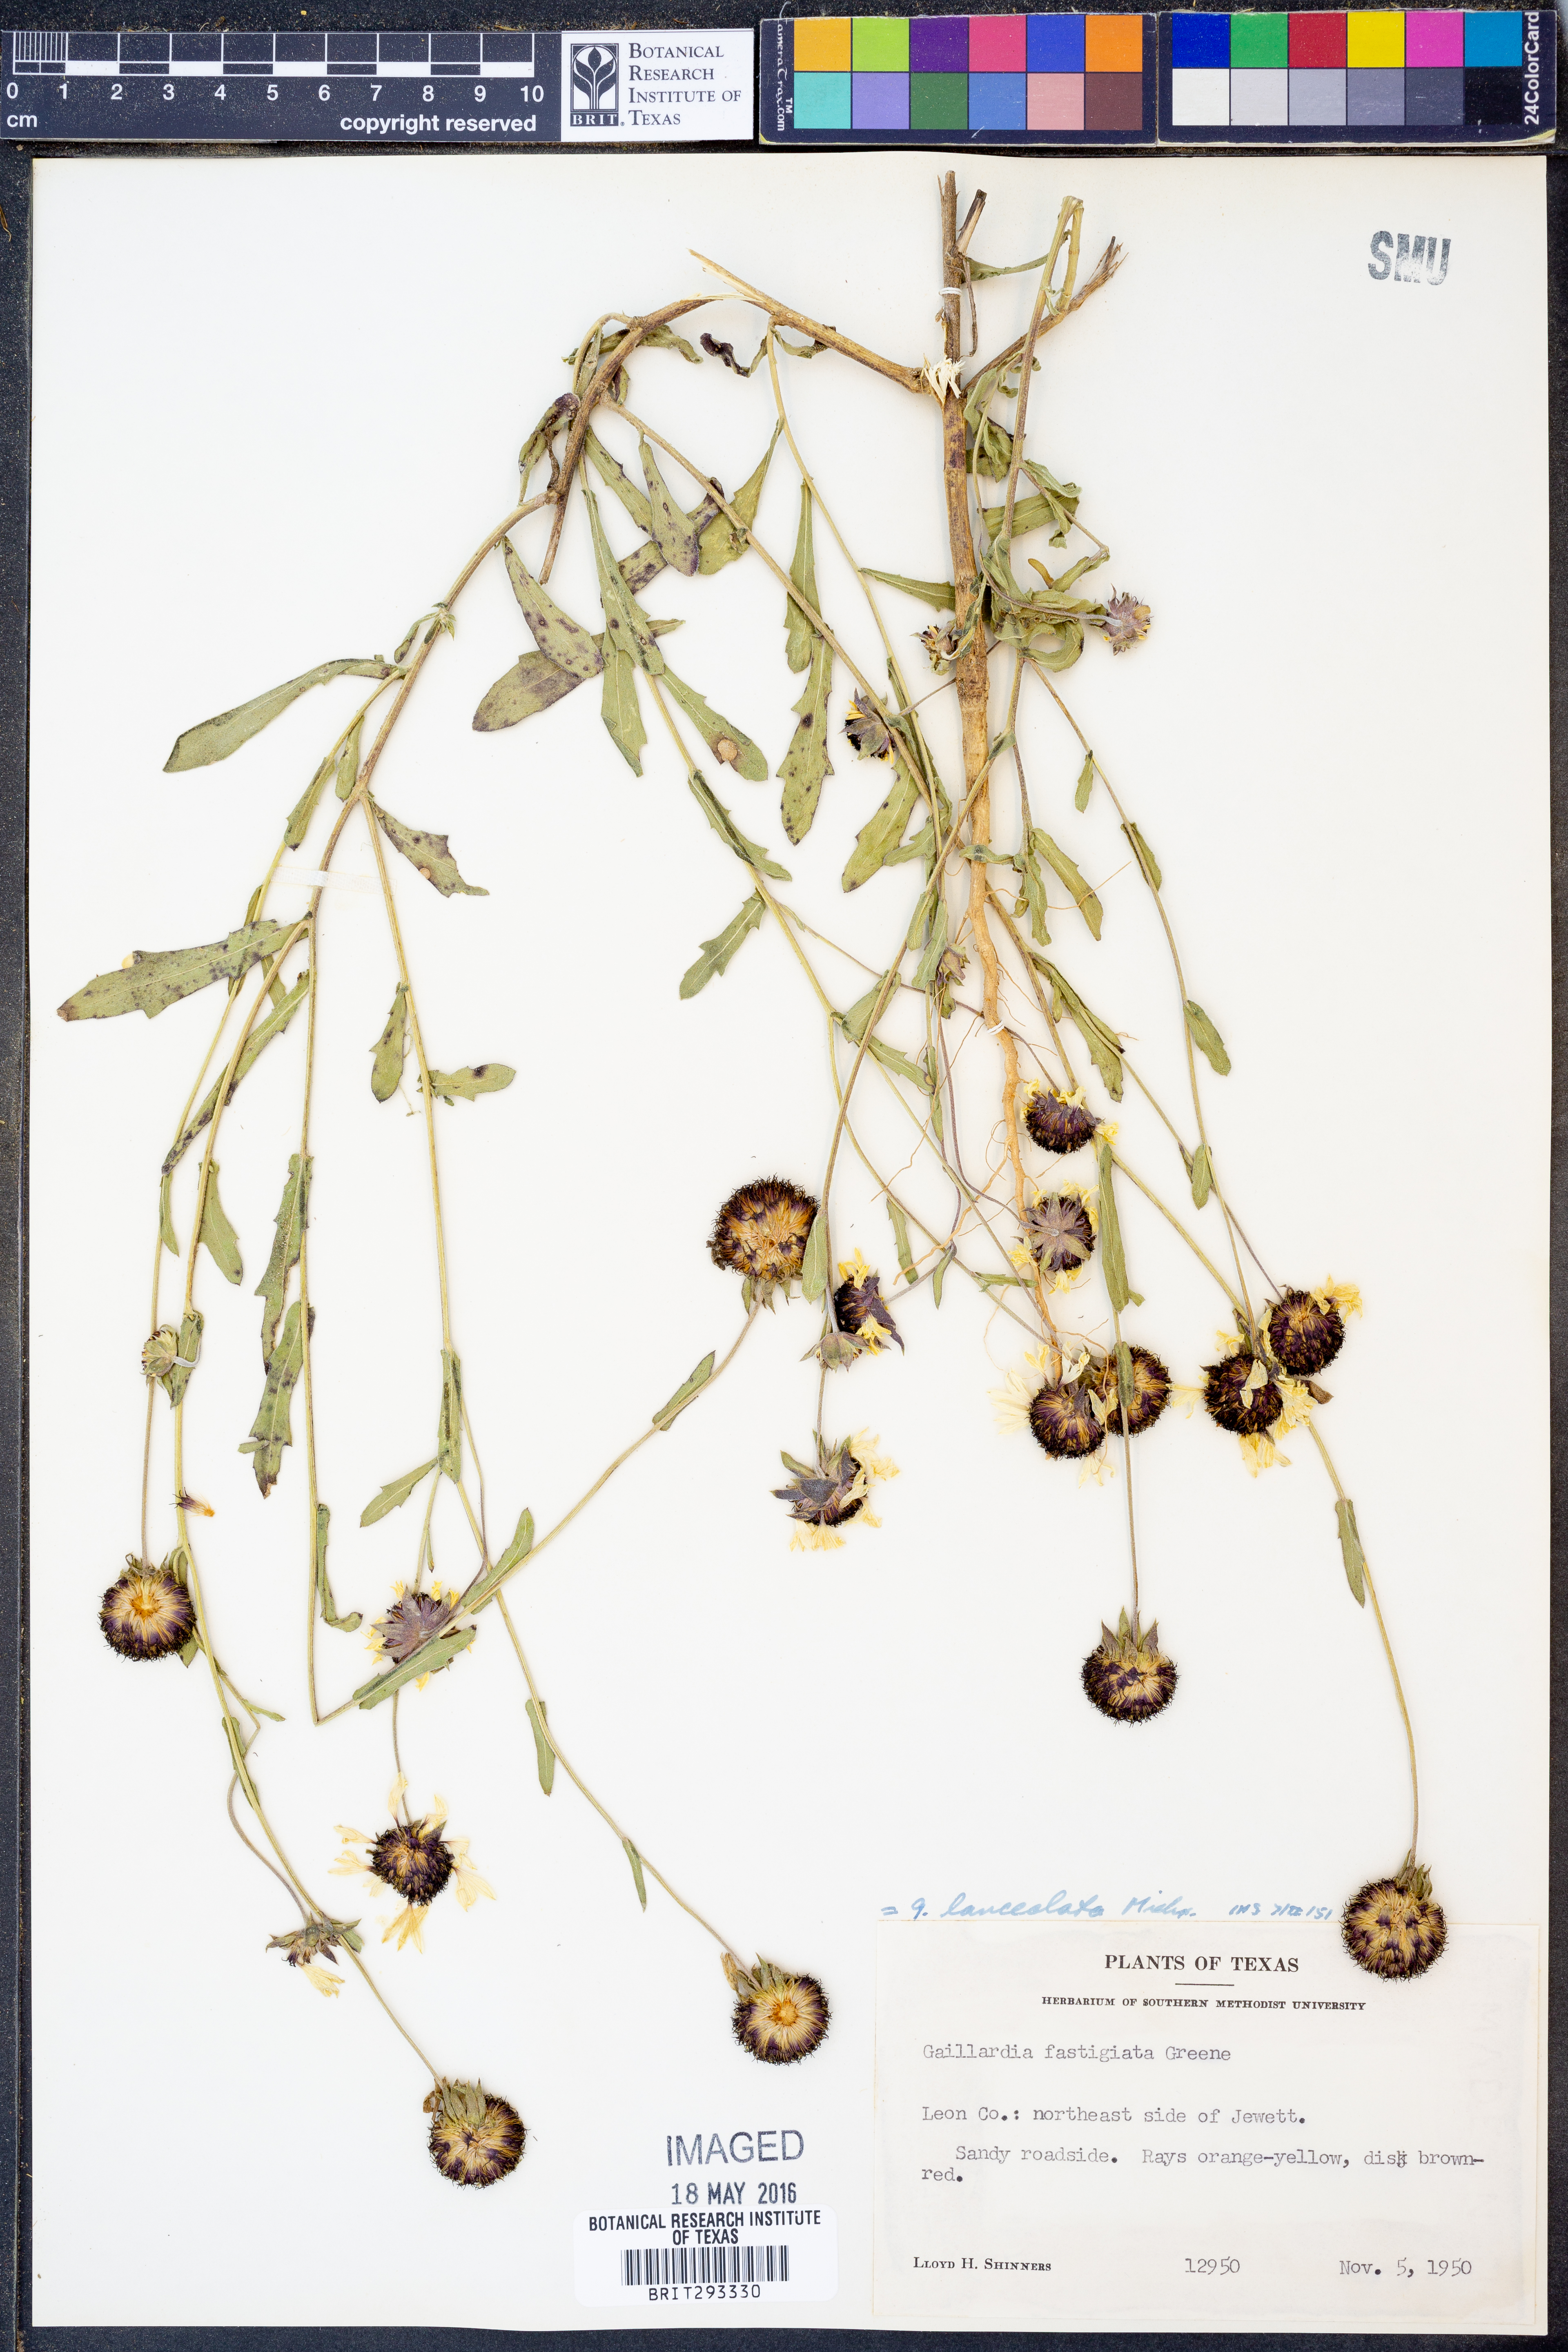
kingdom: Plantae
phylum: Tracheophyta
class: Magnoliopsida
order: Asterales
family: Asteraceae
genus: Gaillardia
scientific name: Gaillardia aestivalis
